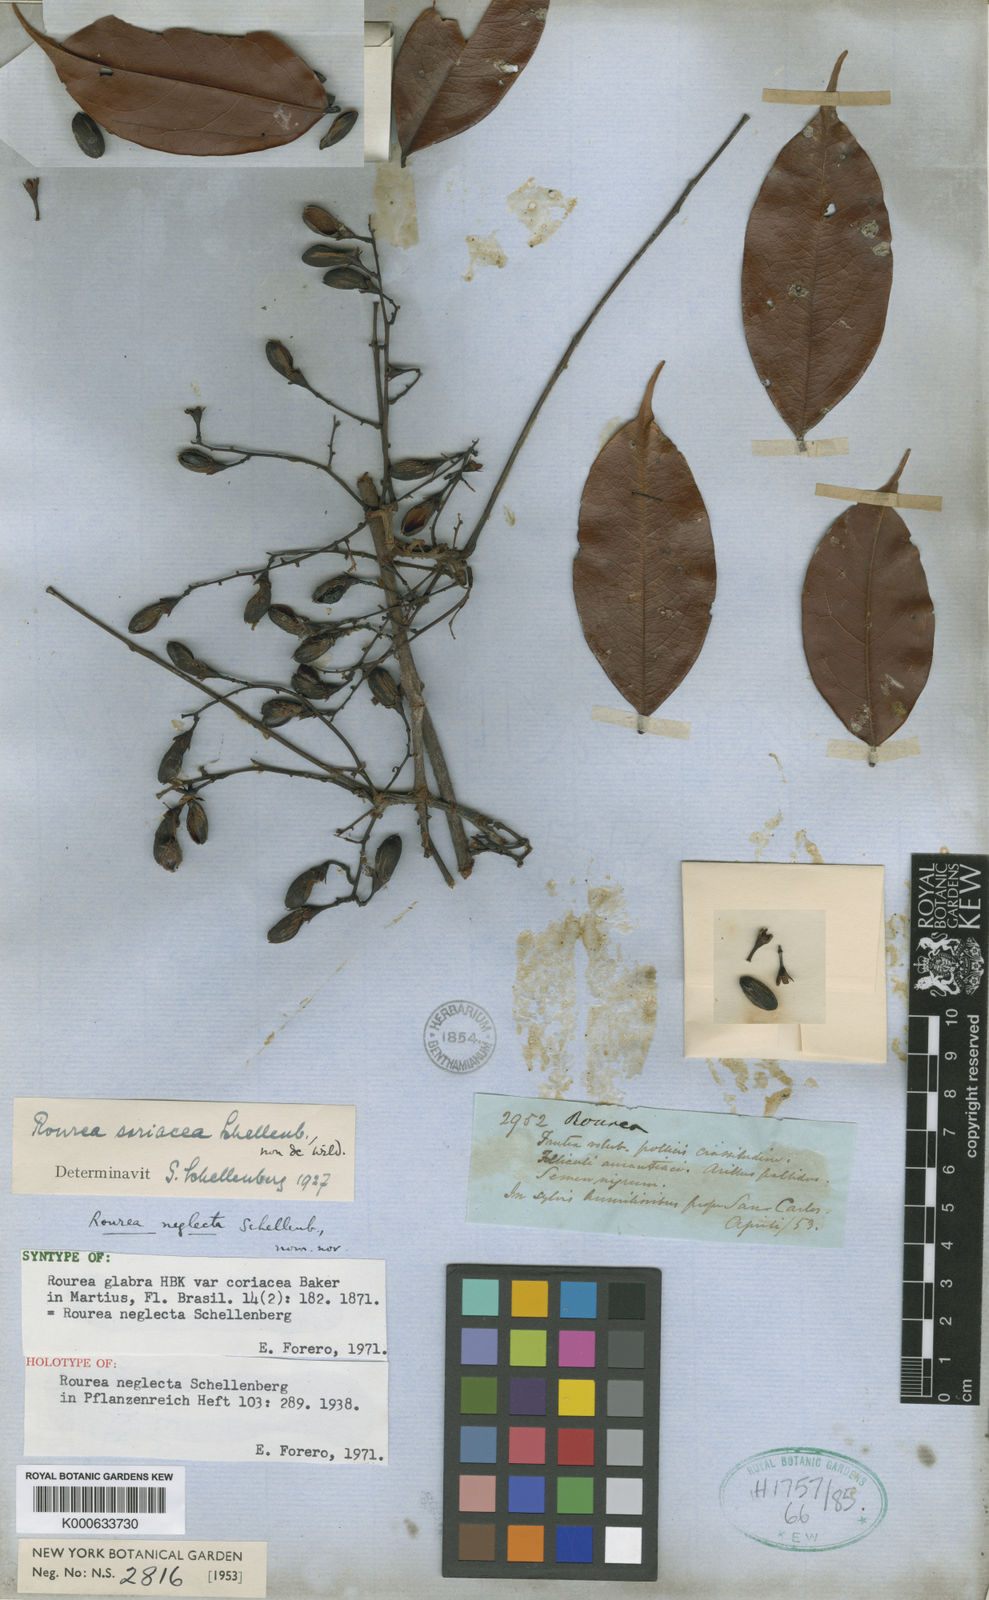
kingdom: Plantae
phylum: Tracheophyta
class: Magnoliopsida
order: Oxalidales
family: Connaraceae
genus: Rourea
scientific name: Rourea neglecta
